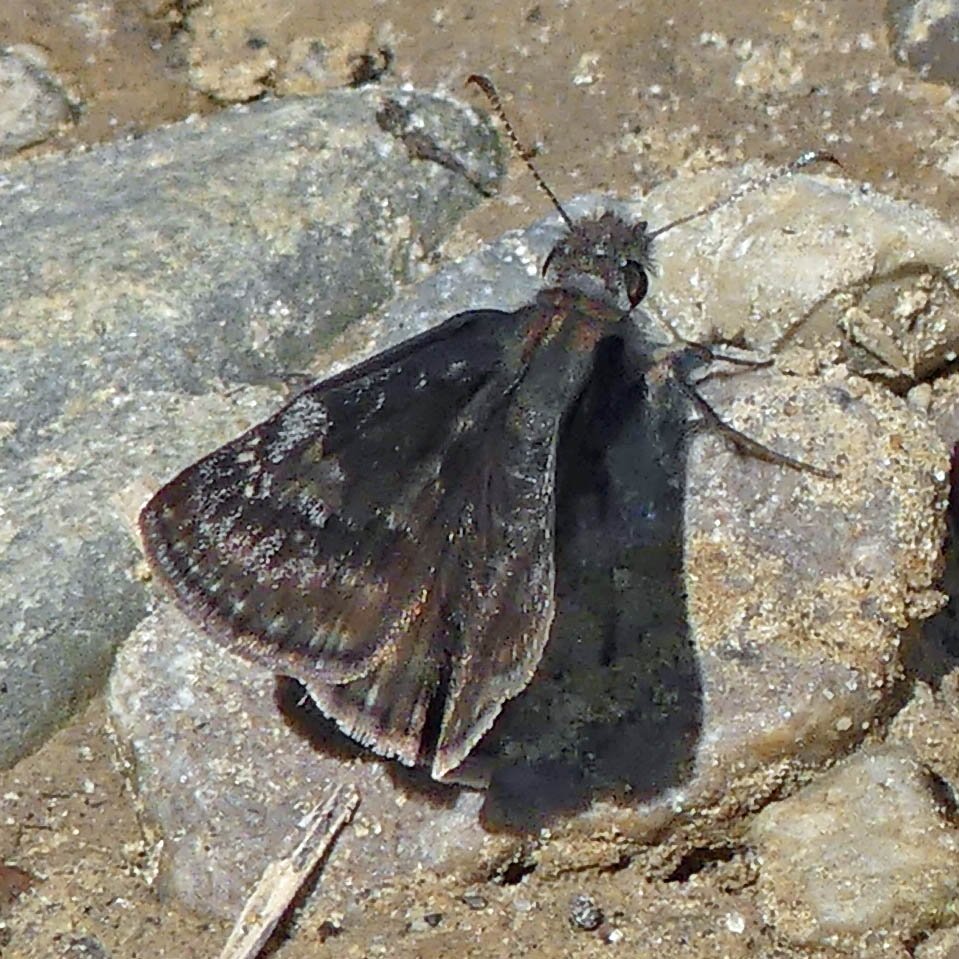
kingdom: Animalia
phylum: Arthropoda
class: Insecta
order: Lepidoptera
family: Hesperiidae
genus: Gesta
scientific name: Gesta
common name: Wild Indigo Duskywing
